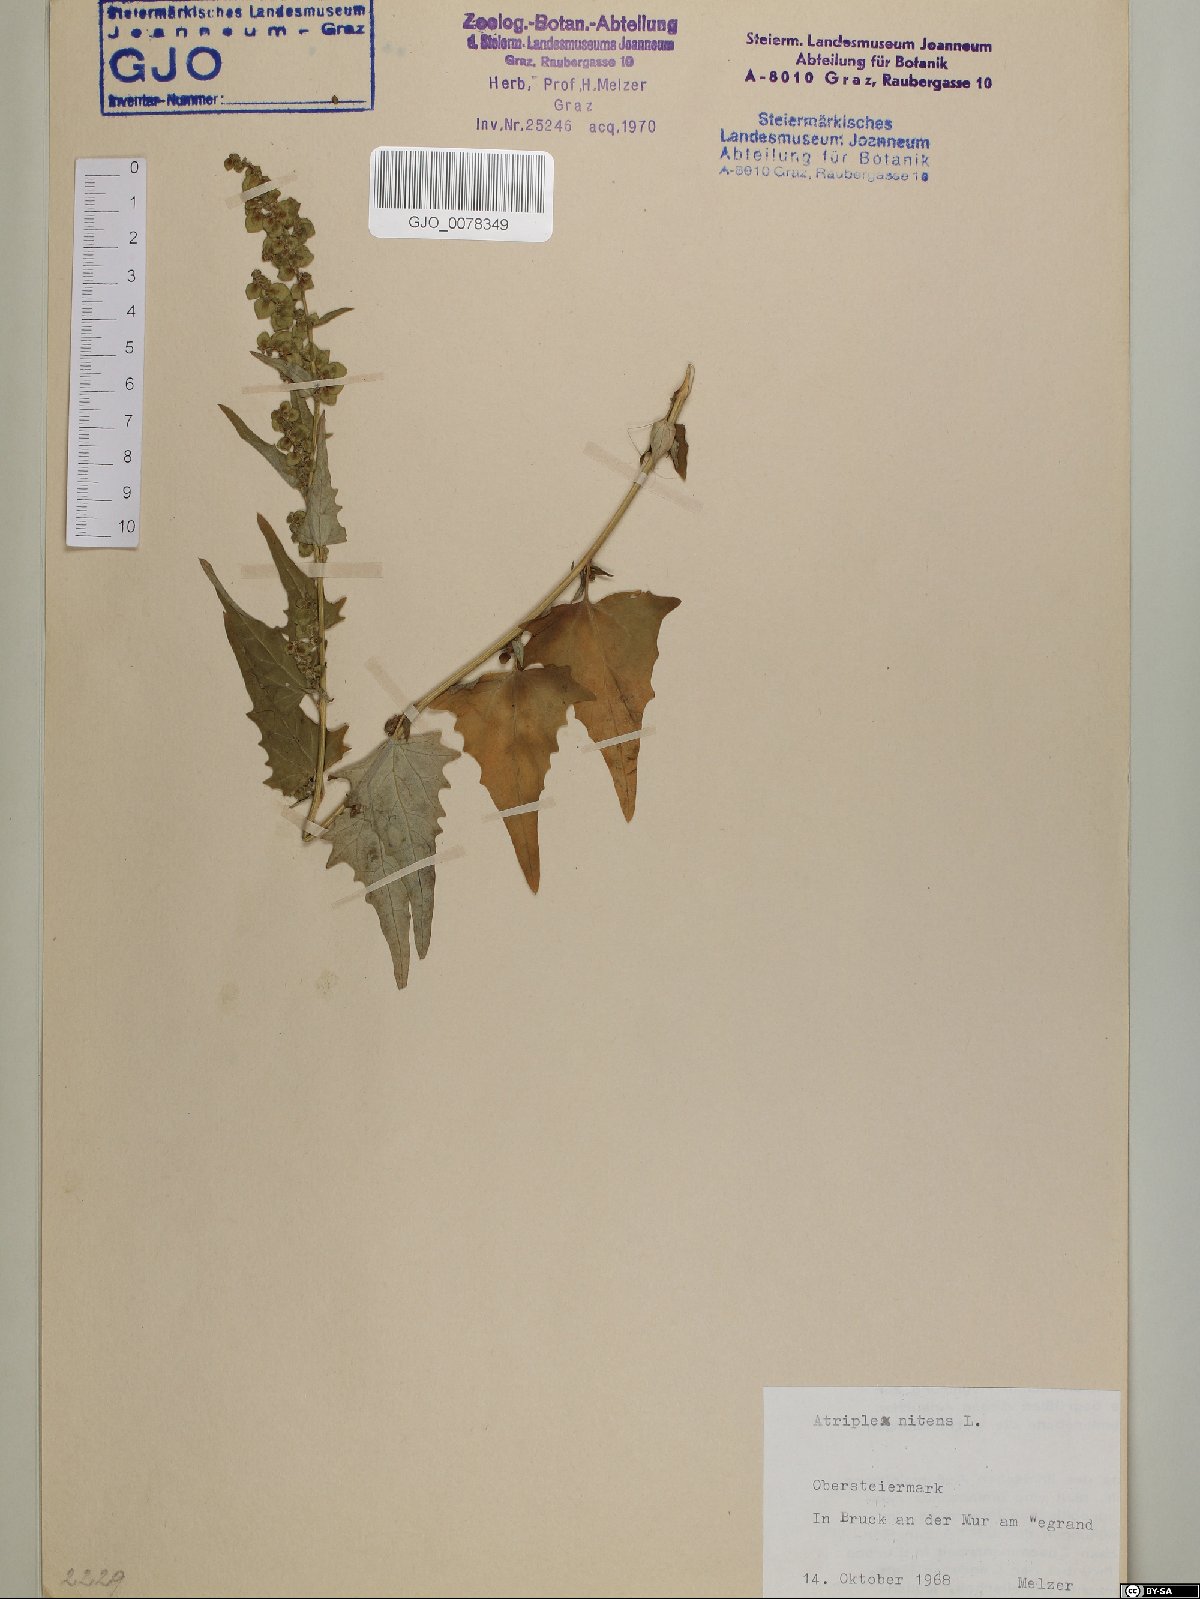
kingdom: Plantae
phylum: Tracheophyta
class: Magnoliopsida
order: Caryophyllales
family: Amaranthaceae
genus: Atriplex
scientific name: Atriplex sagittata
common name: Purple orache
